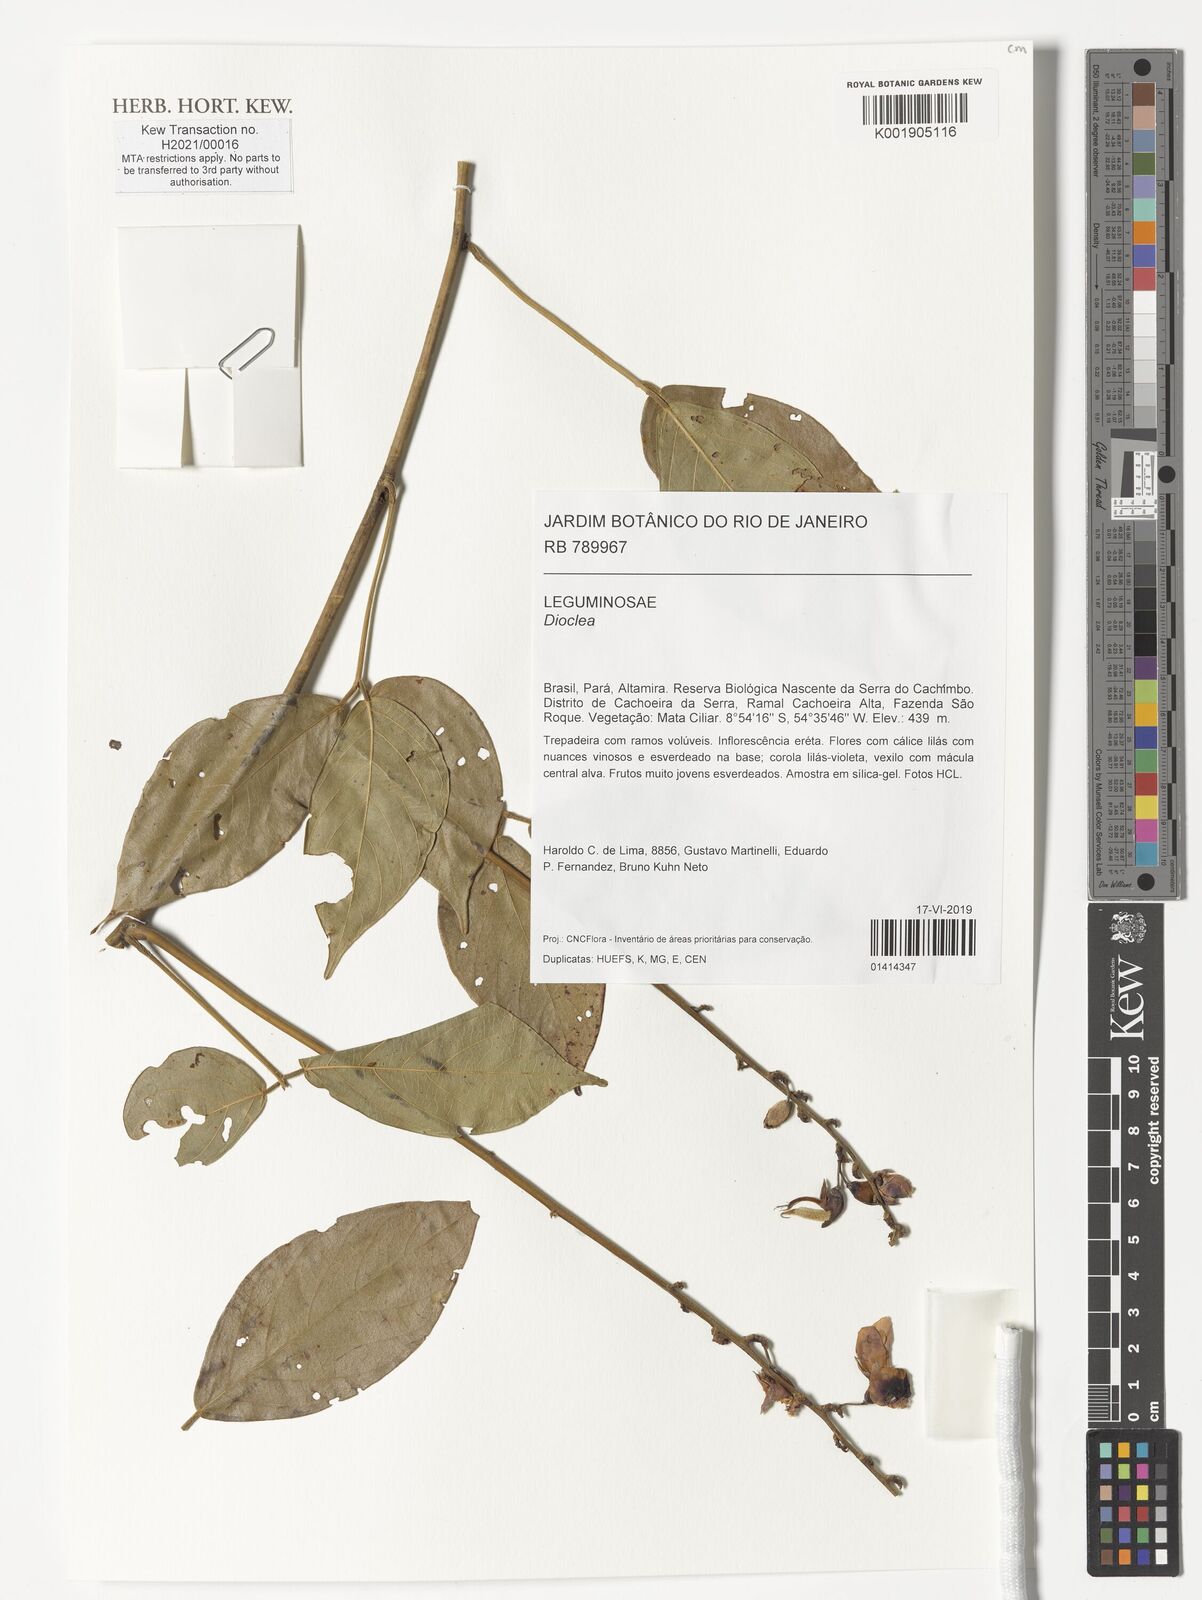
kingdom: Plantae
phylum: Tracheophyta
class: Magnoliopsida
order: Fabales
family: Fabaceae
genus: Dioclea
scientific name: Dioclea
